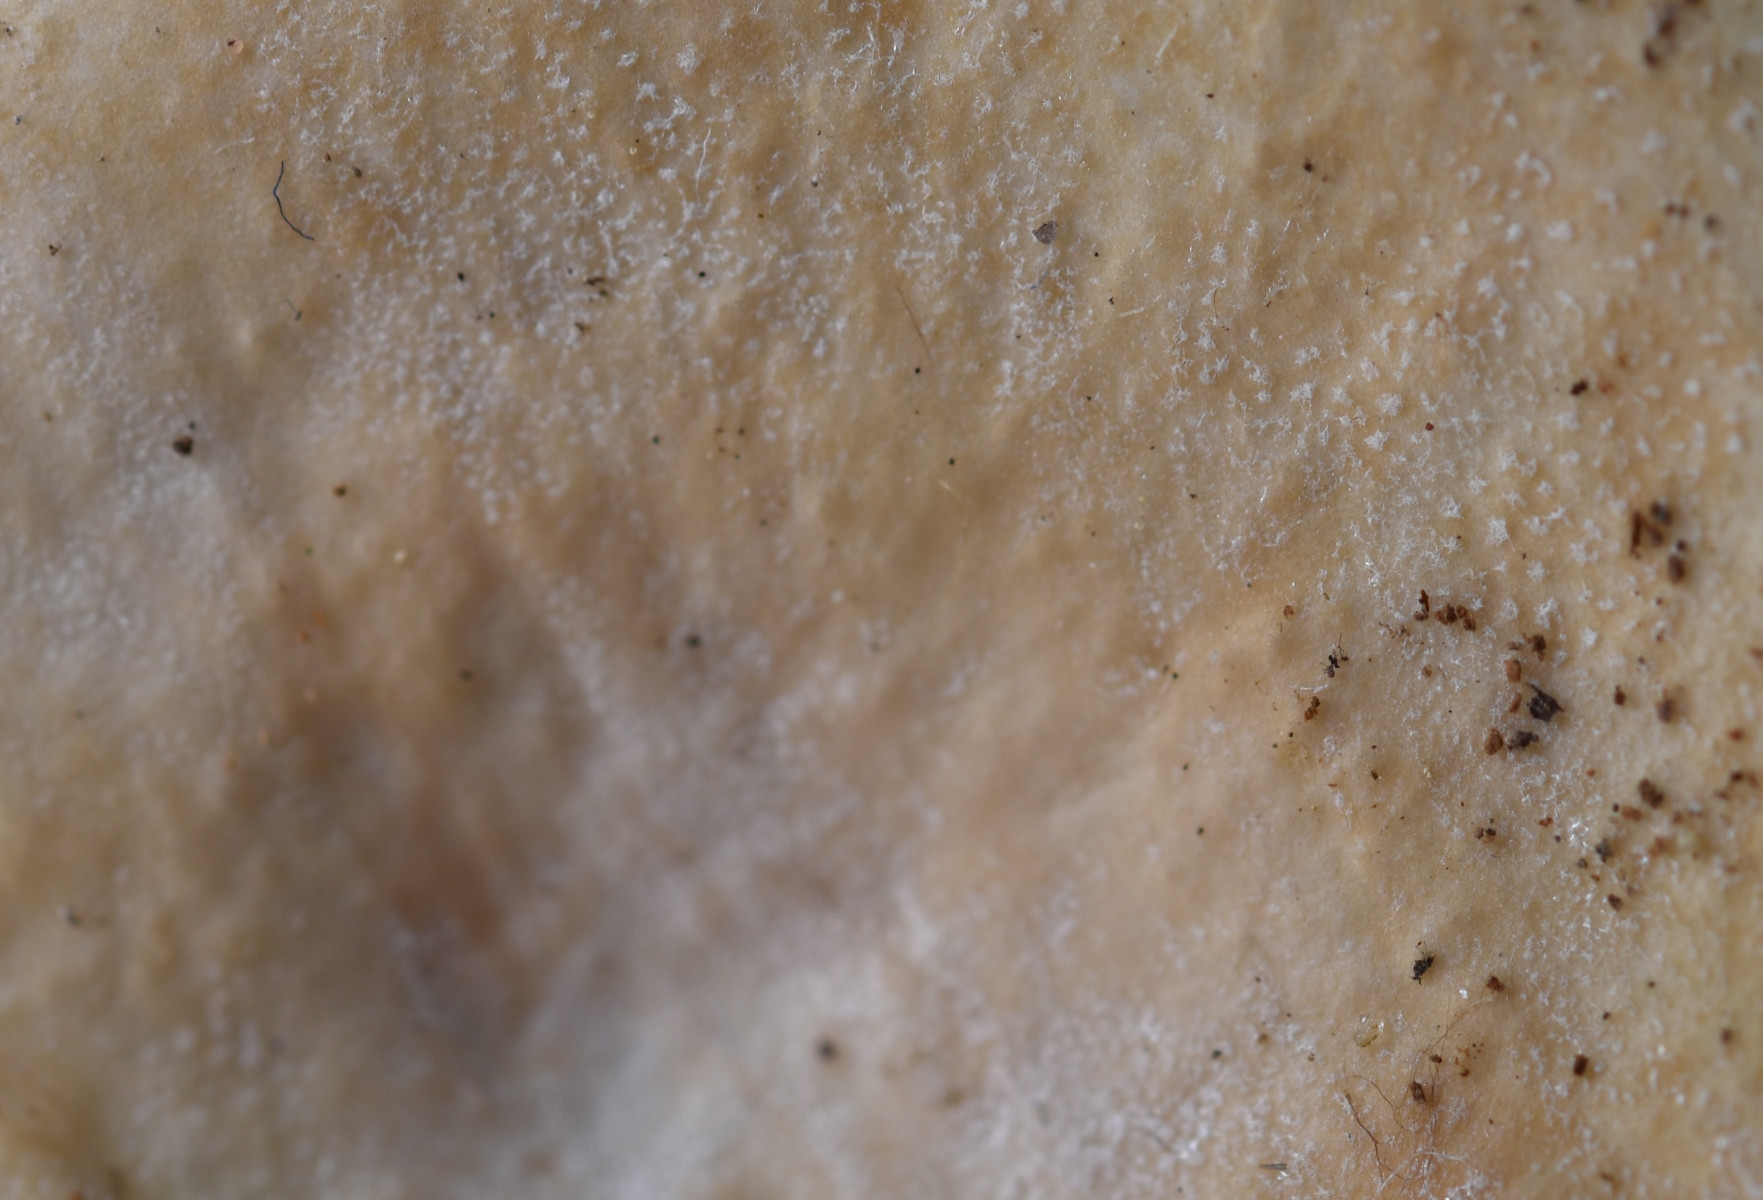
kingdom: Fungi
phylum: Basidiomycota
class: Agaricomycetes
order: Russulales
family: Russulaceae
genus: Russula
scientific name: Russula roseoaurantia
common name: kornet skørhat
